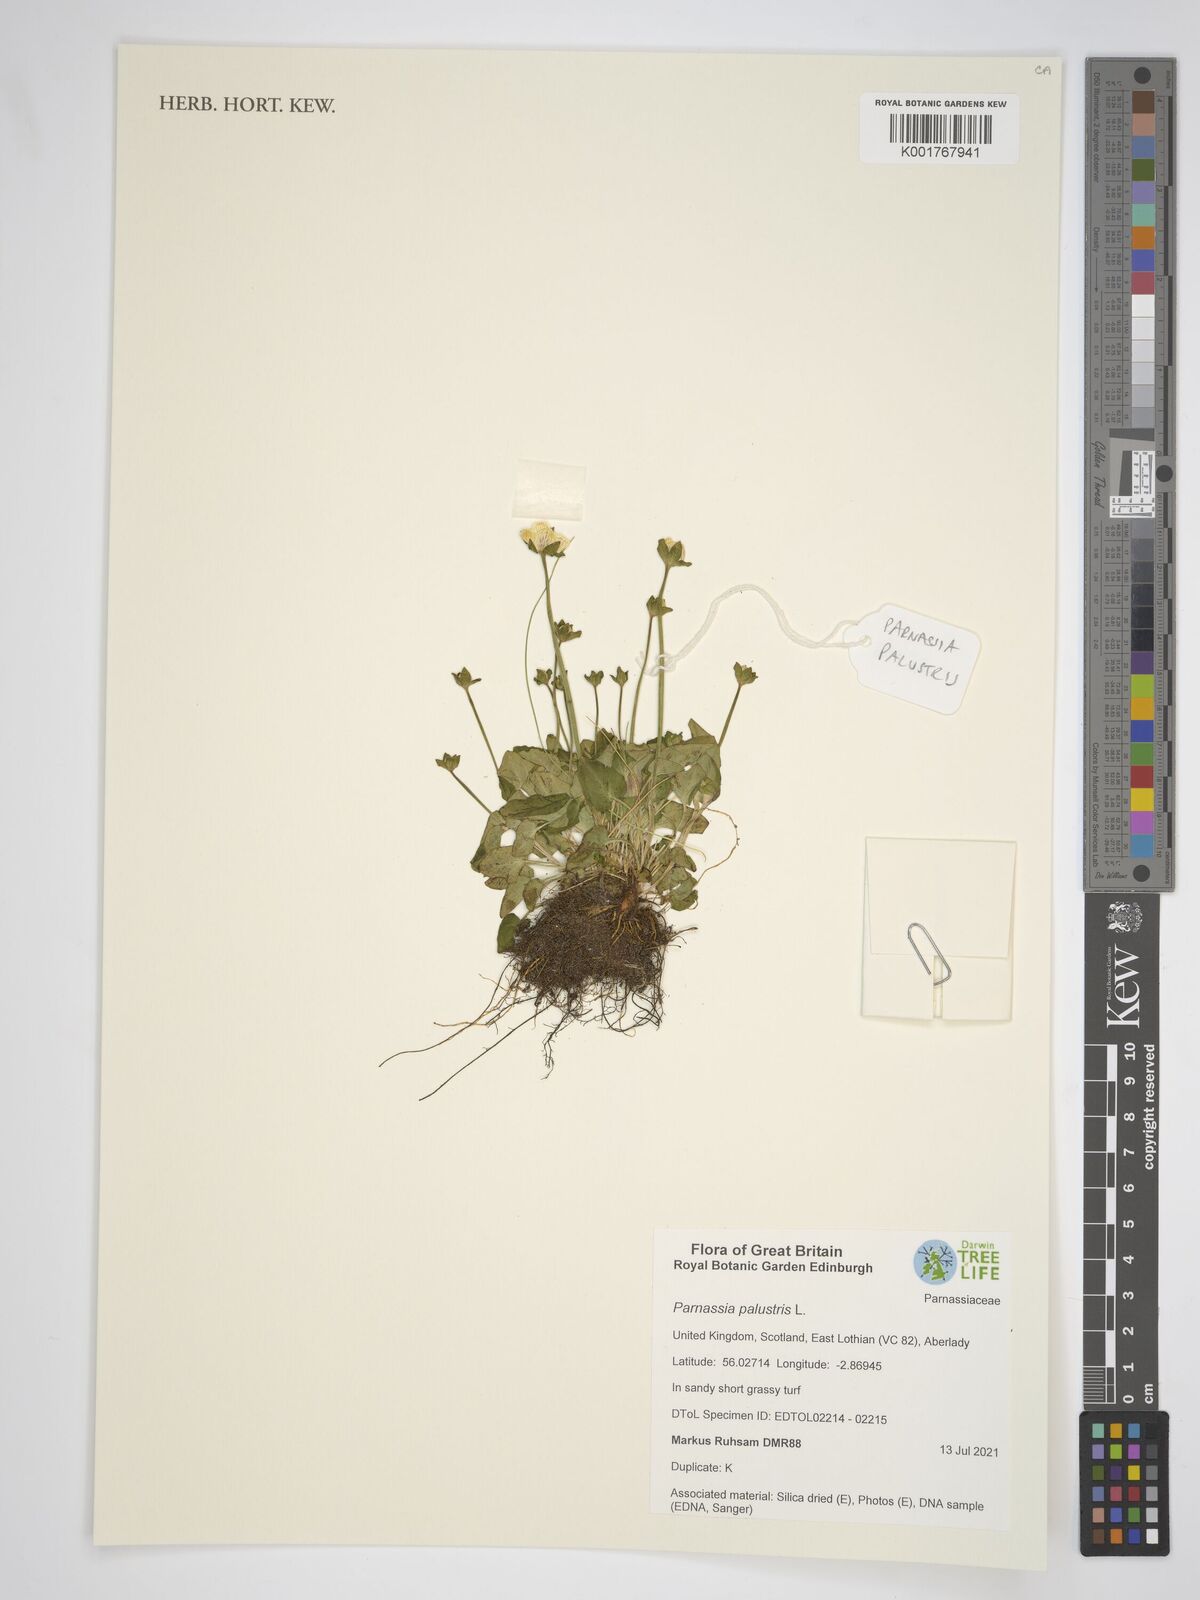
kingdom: Plantae
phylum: Tracheophyta
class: Magnoliopsida
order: Celastrales
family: Parnassiaceae
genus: Parnassia
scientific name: Parnassia palustris
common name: Grass-of-parnassus
